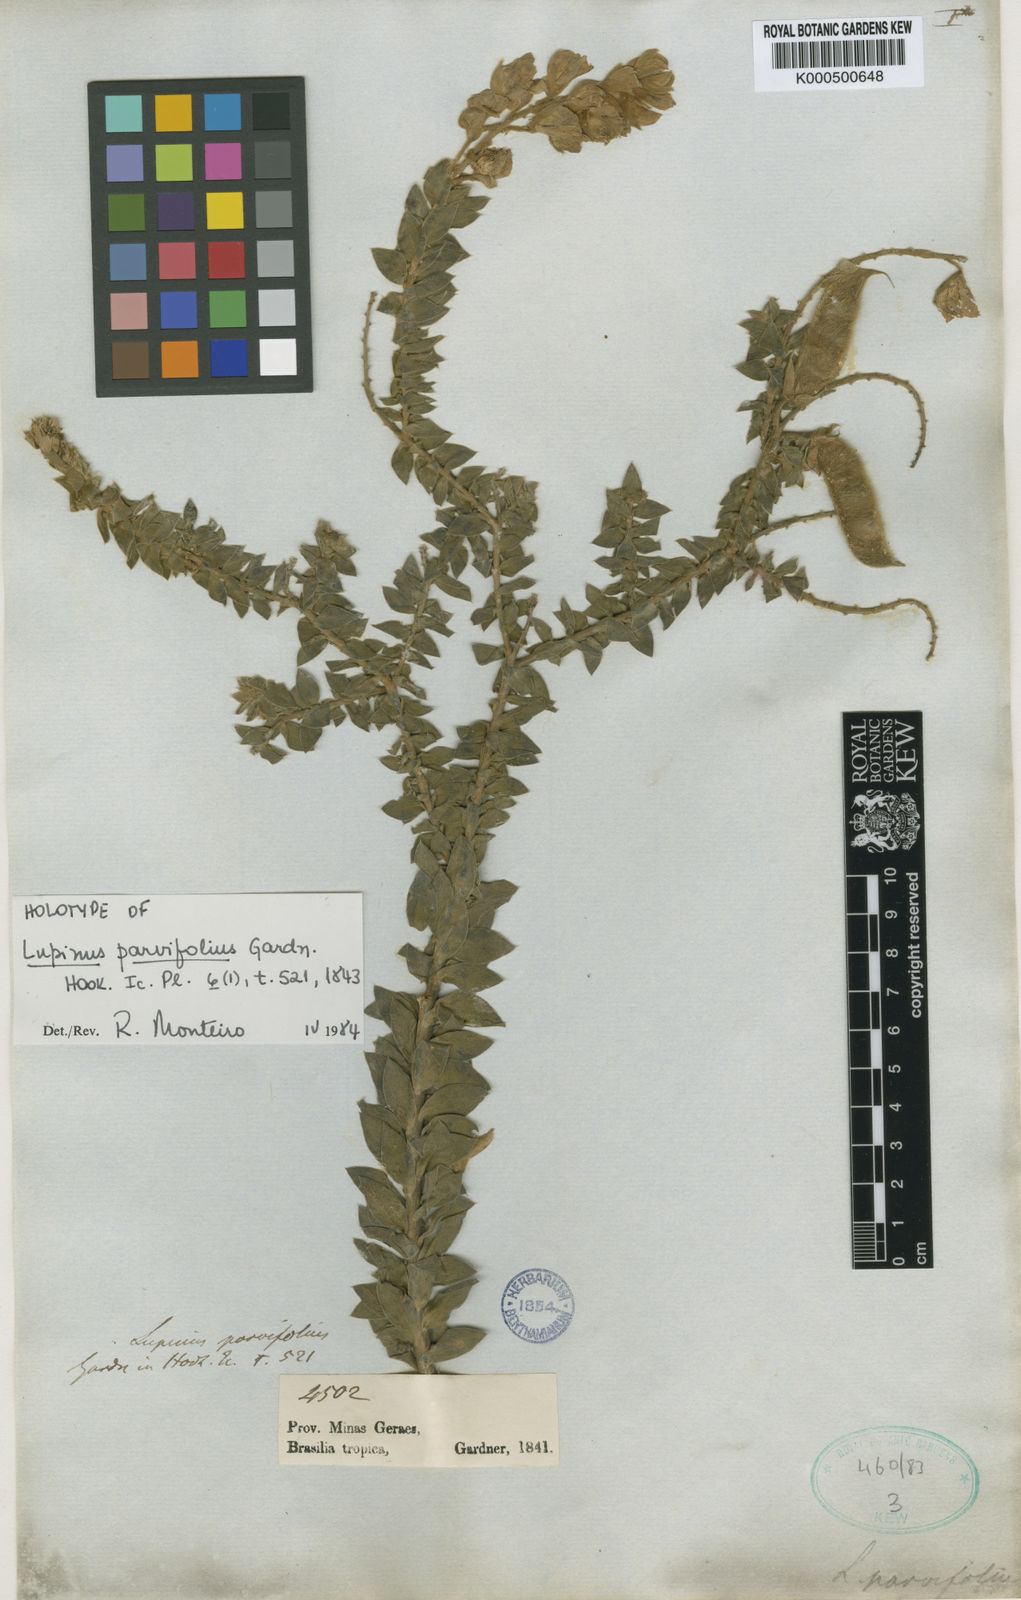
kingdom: Plantae
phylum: Tracheophyta
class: Magnoliopsida
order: Fabales
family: Fabaceae
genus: Lupinus
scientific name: Lupinus parvifolius
